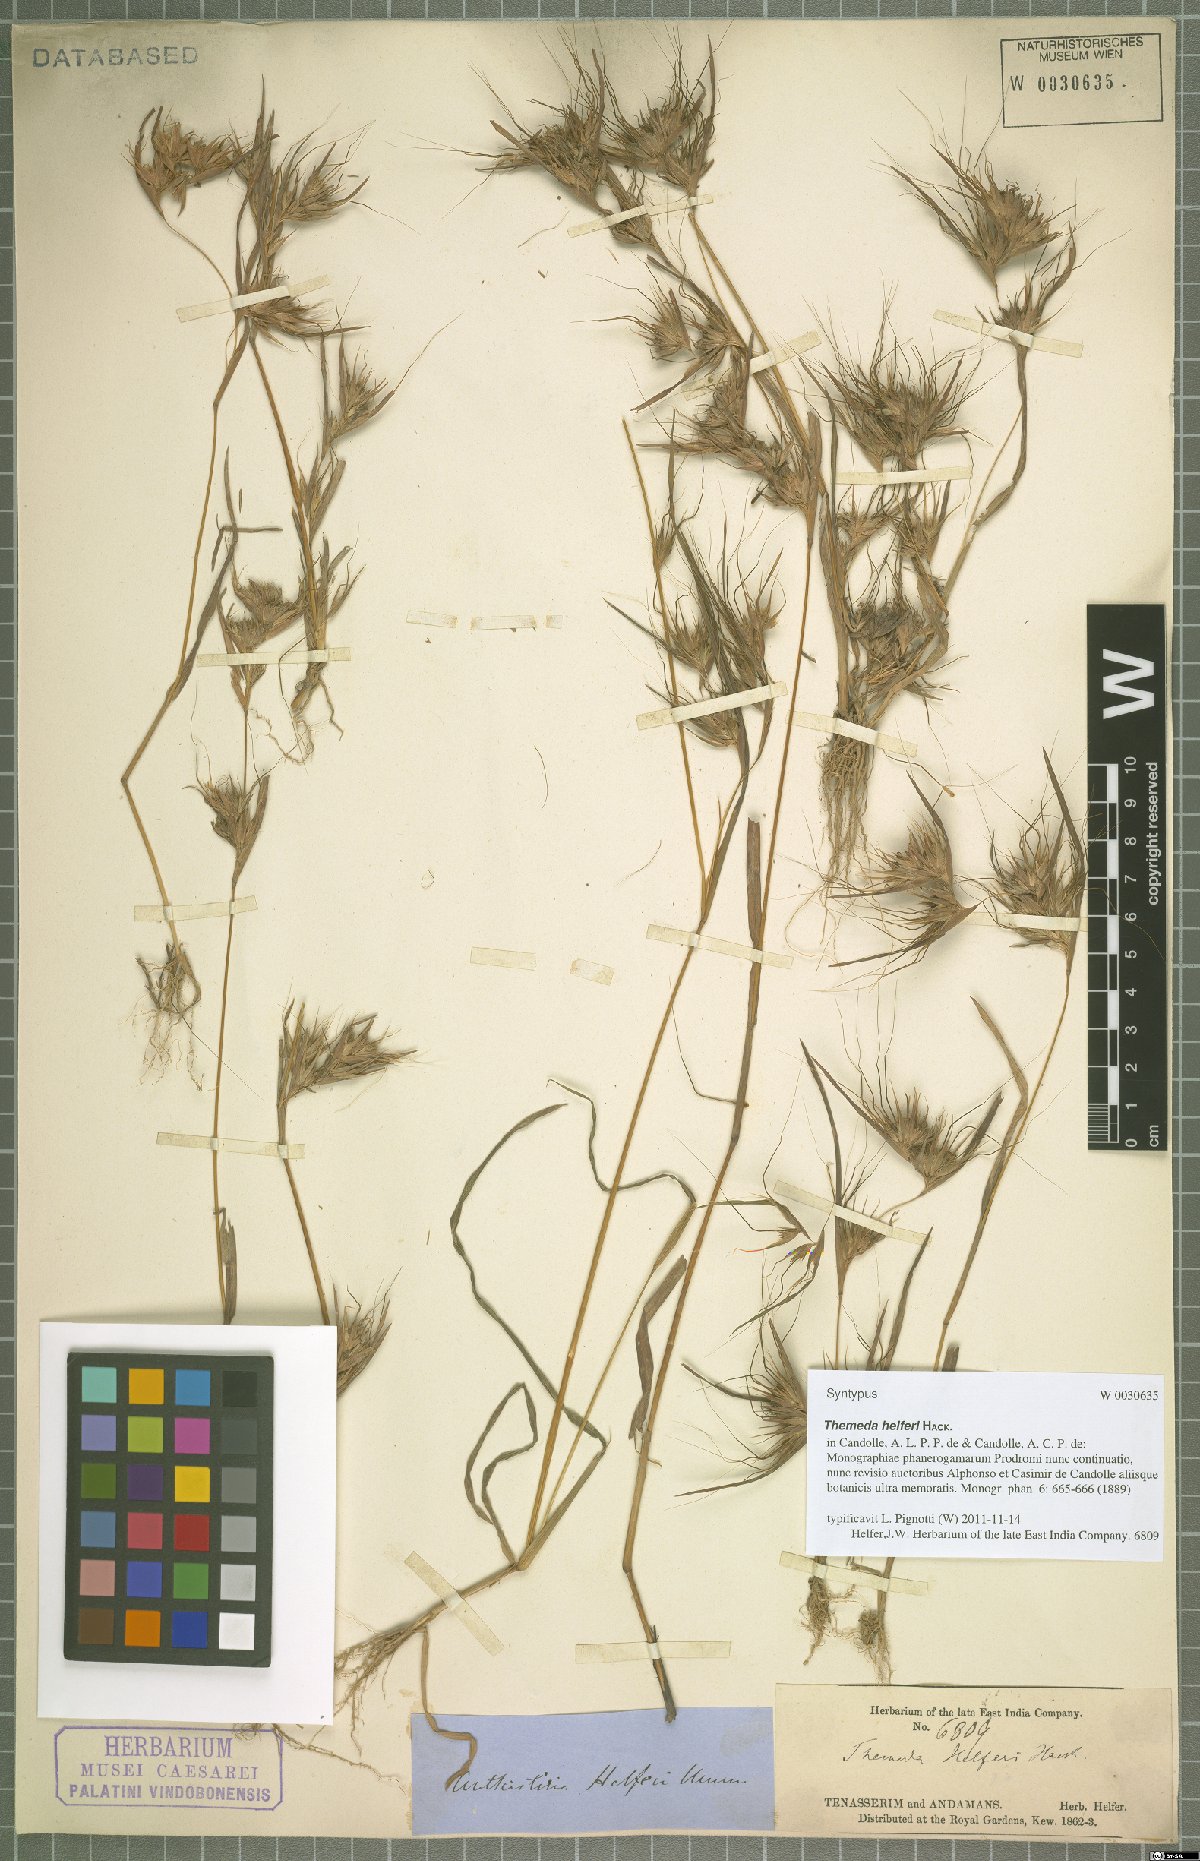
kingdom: Plantae
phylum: Tracheophyta
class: Liliopsida
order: Poales
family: Poaceae
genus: Themeda
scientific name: Themeda helferi
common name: Kangaroo grass
